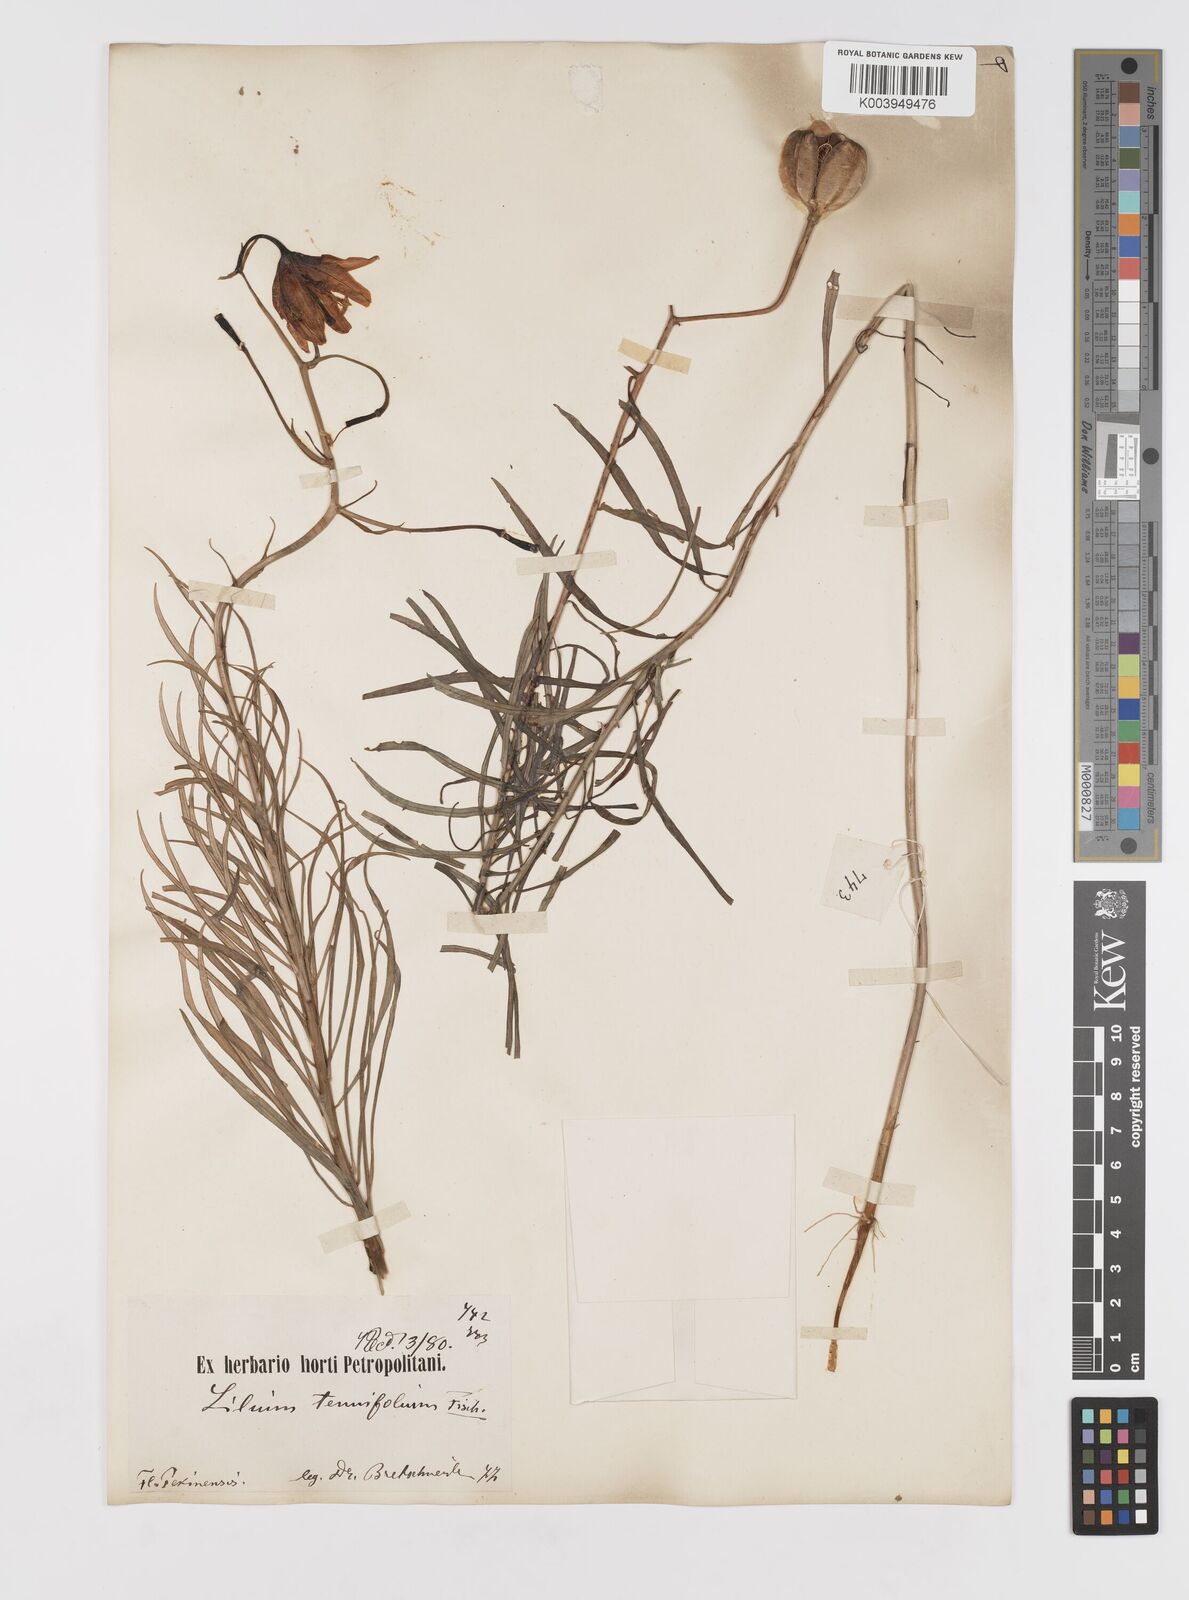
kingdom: Plantae
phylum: Tracheophyta
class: Liliopsida
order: Liliales
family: Liliaceae
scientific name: Liliaceae
